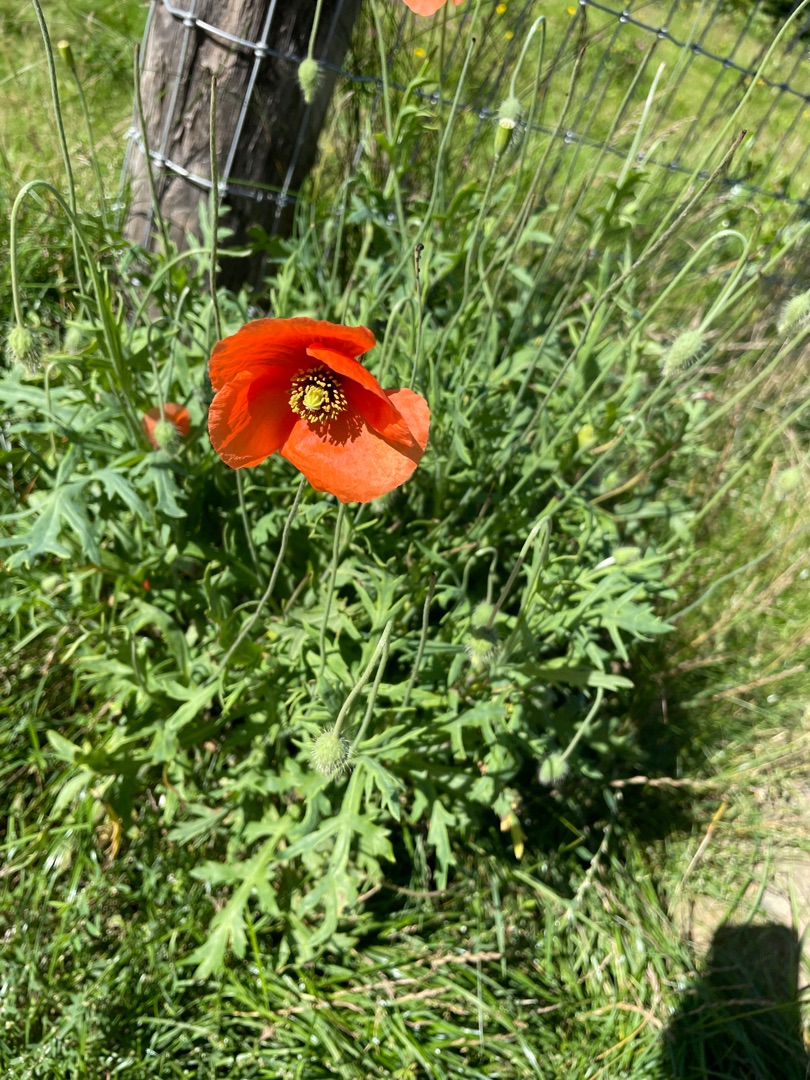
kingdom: Plantae
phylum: Tracheophyta
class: Magnoliopsida
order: Ranunculales
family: Papaveraceae
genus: Papaver
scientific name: Papaver dubium
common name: Gærde-valmue
